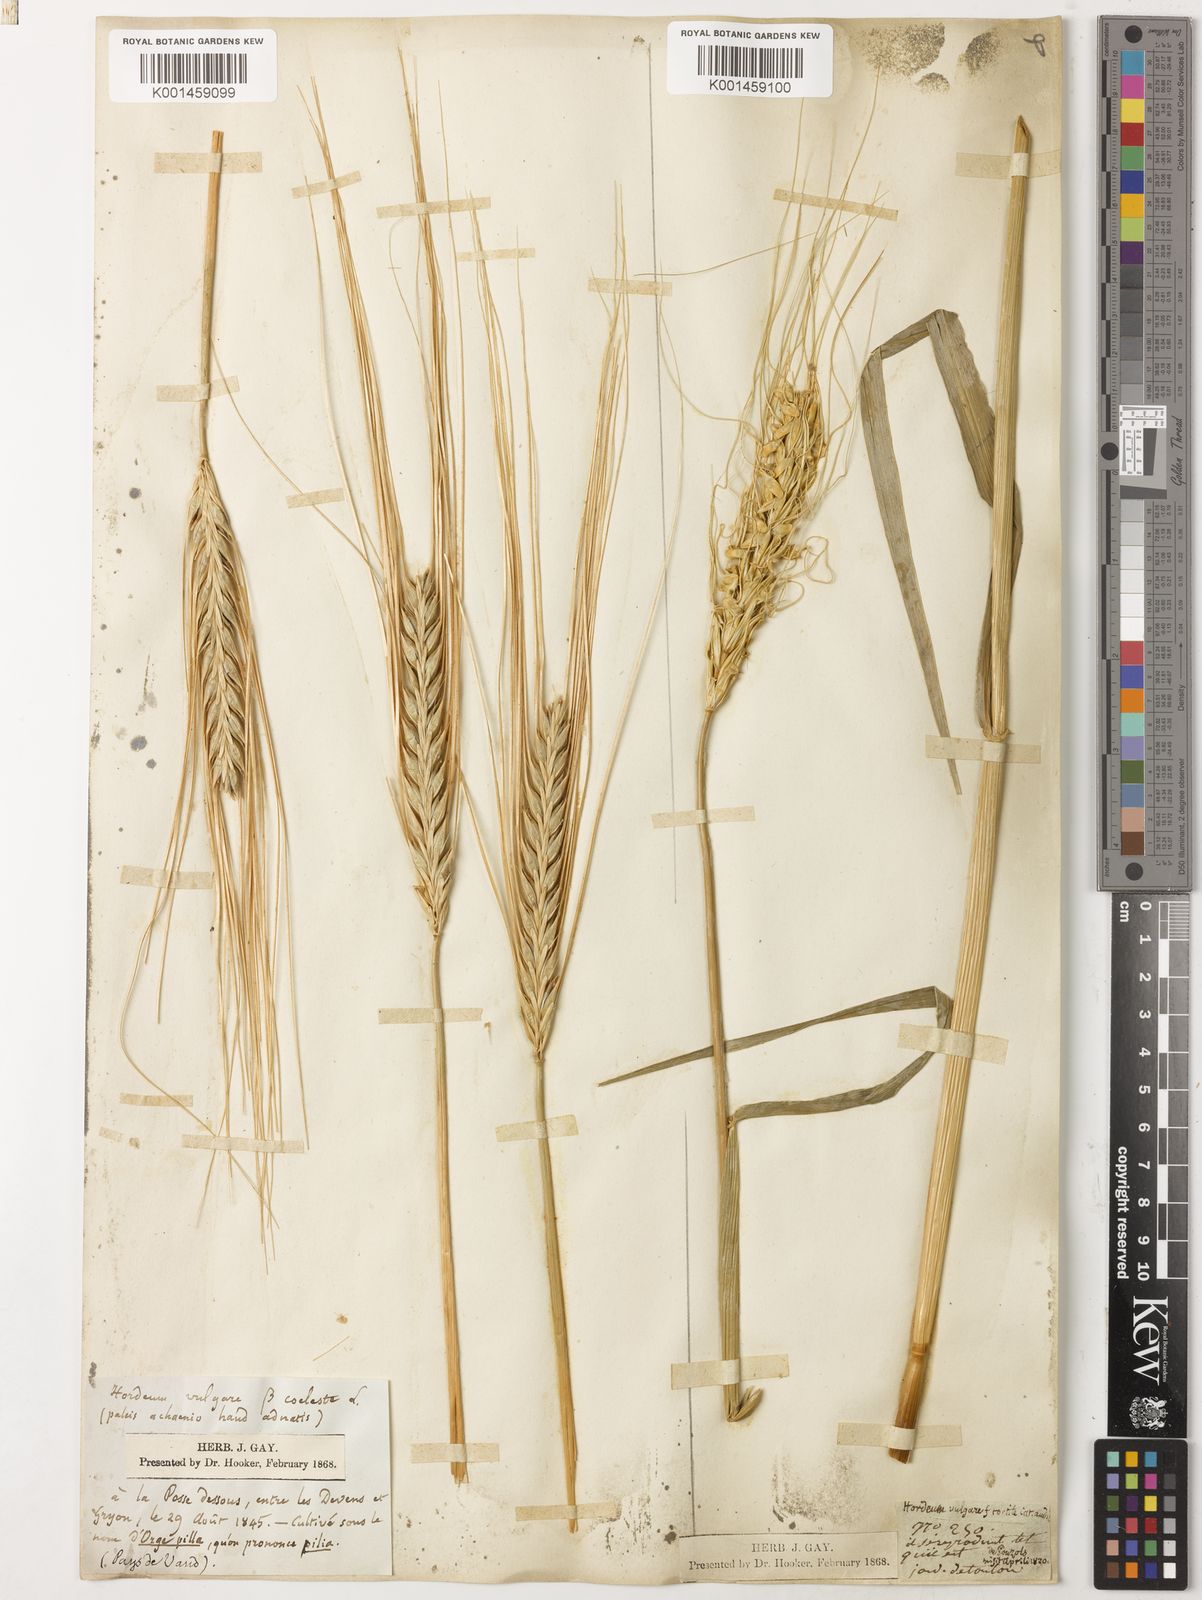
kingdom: Plantae
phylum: Tracheophyta
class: Liliopsida
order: Poales
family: Poaceae
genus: Hordeum
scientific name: Hordeum vulgare
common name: Common barley
